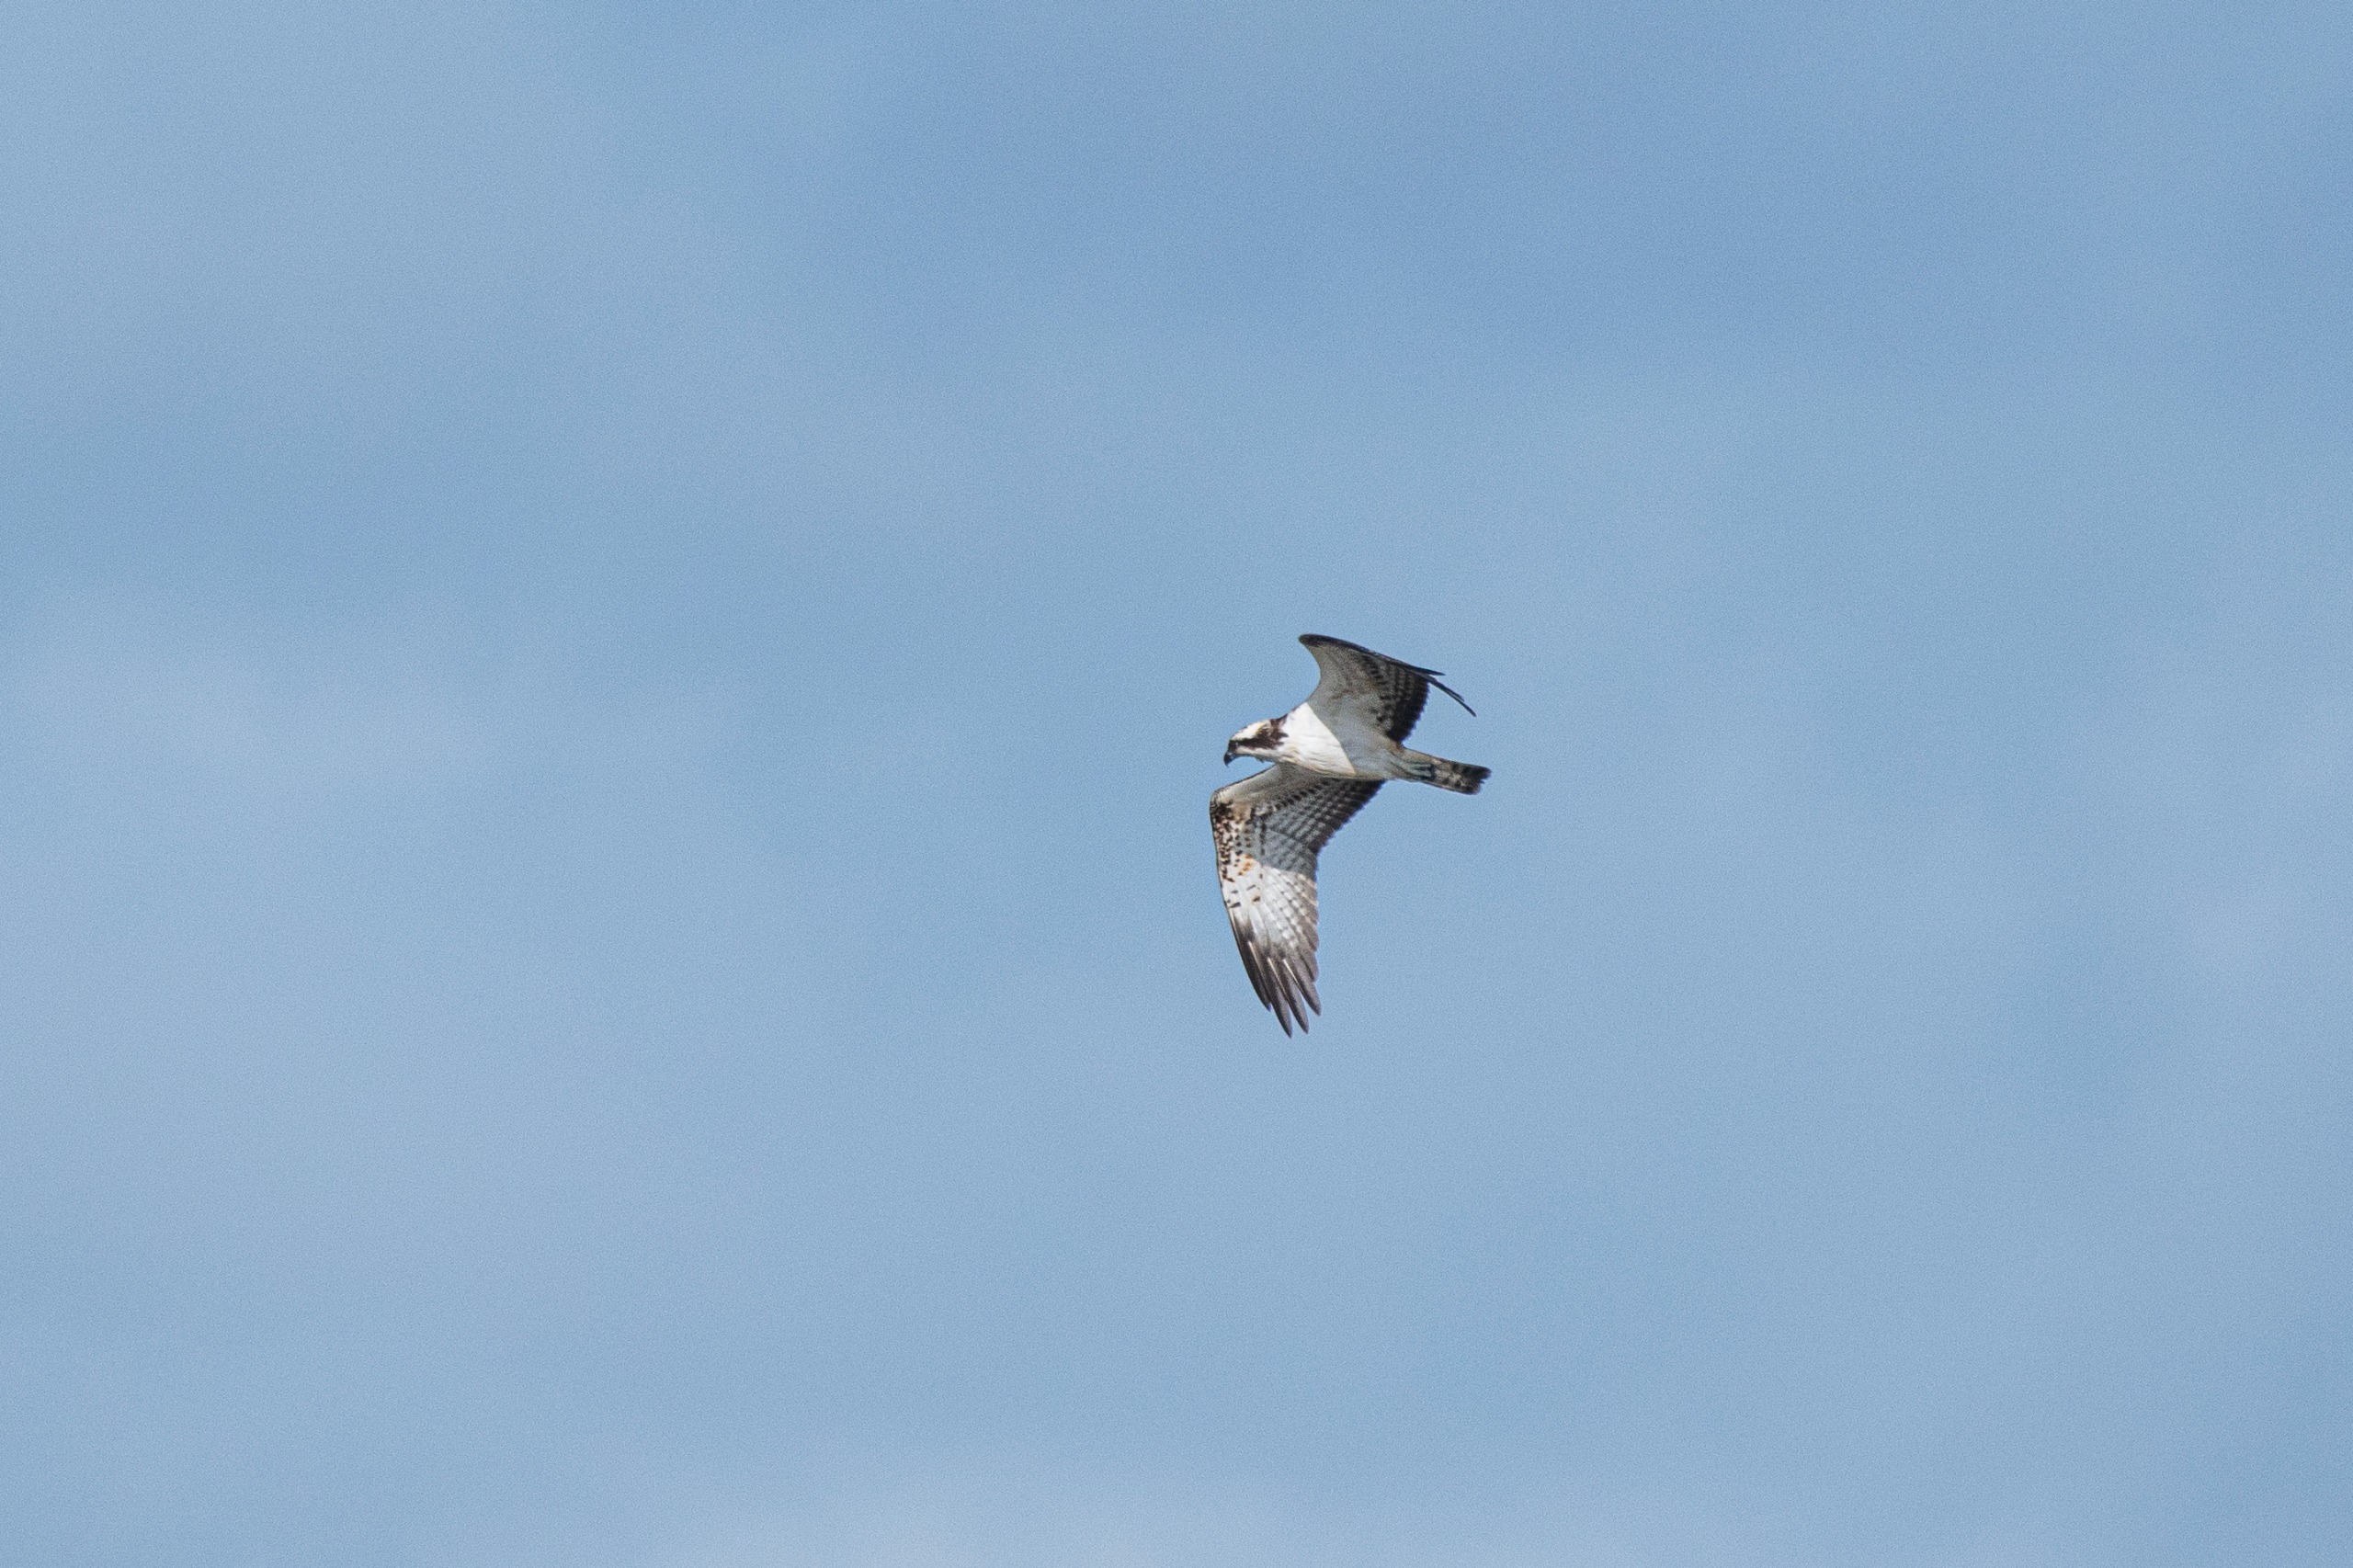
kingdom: Animalia
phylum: Chordata
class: Aves
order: Accipitriformes
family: Pandionidae
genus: Pandion
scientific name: Pandion haliaetus
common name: Fiskeørn
